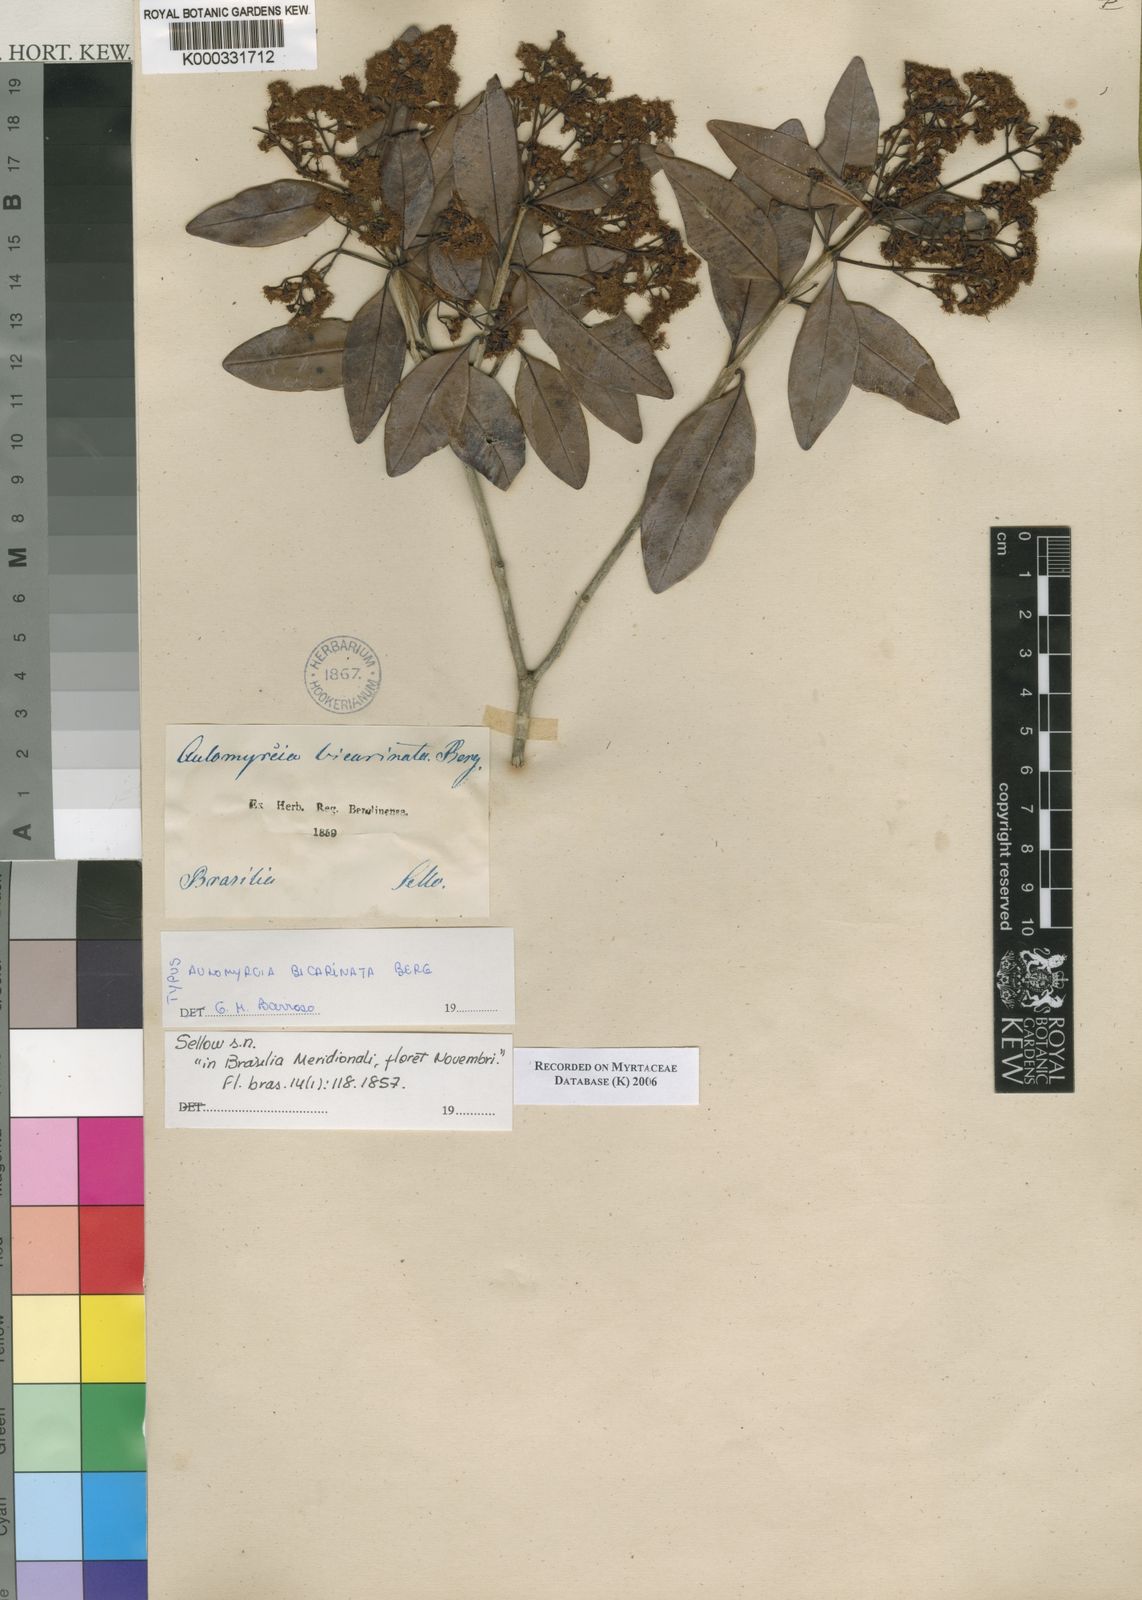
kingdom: Plantae
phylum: Tracheophyta
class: Magnoliopsida
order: Myrtales
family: Myrtaceae
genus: Myrcia
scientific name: Myrcia bicarinata
